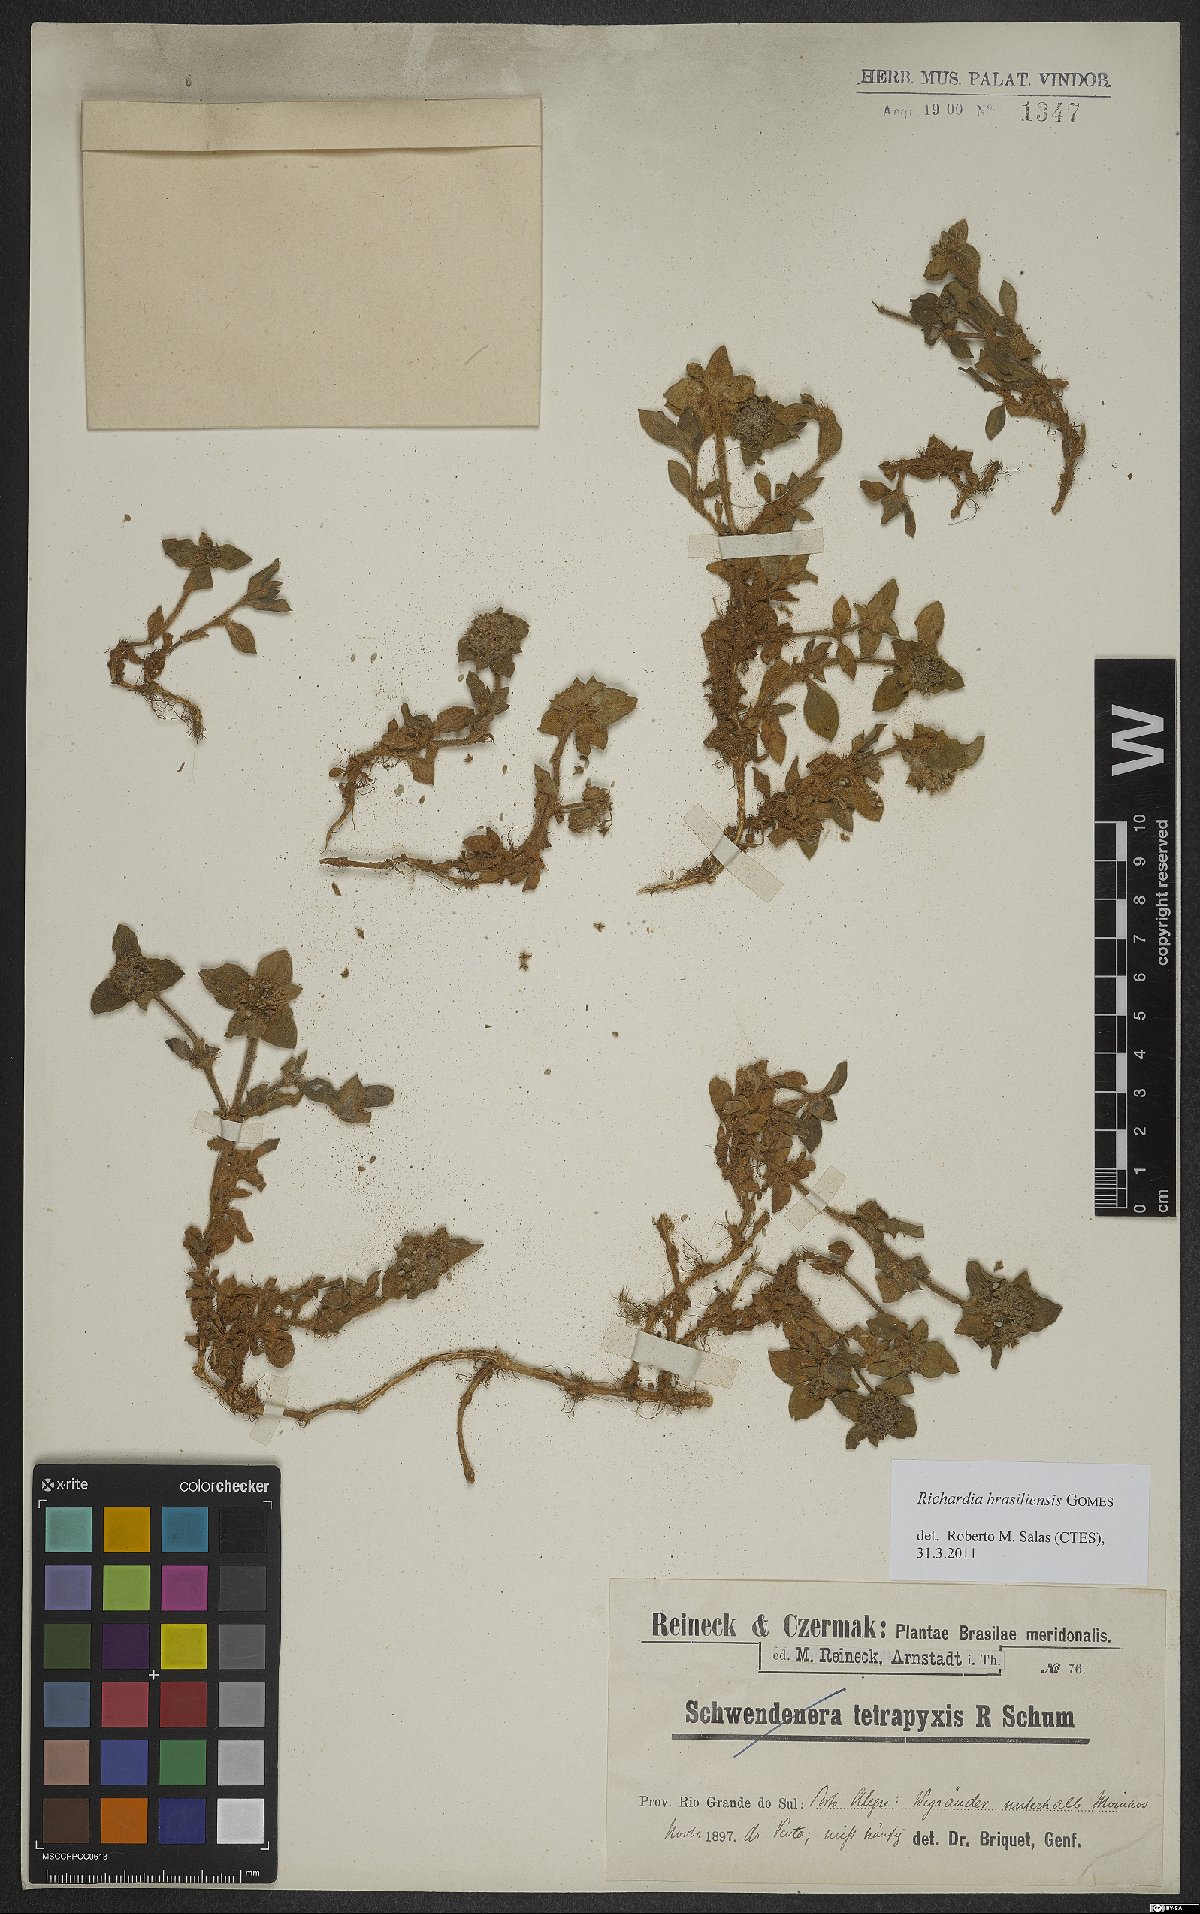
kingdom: Plantae
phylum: Tracheophyta
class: Magnoliopsida
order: Gentianales
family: Rubiaceae
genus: Richardia
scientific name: Richardia brasiliensis
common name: Tropical mexican clover
